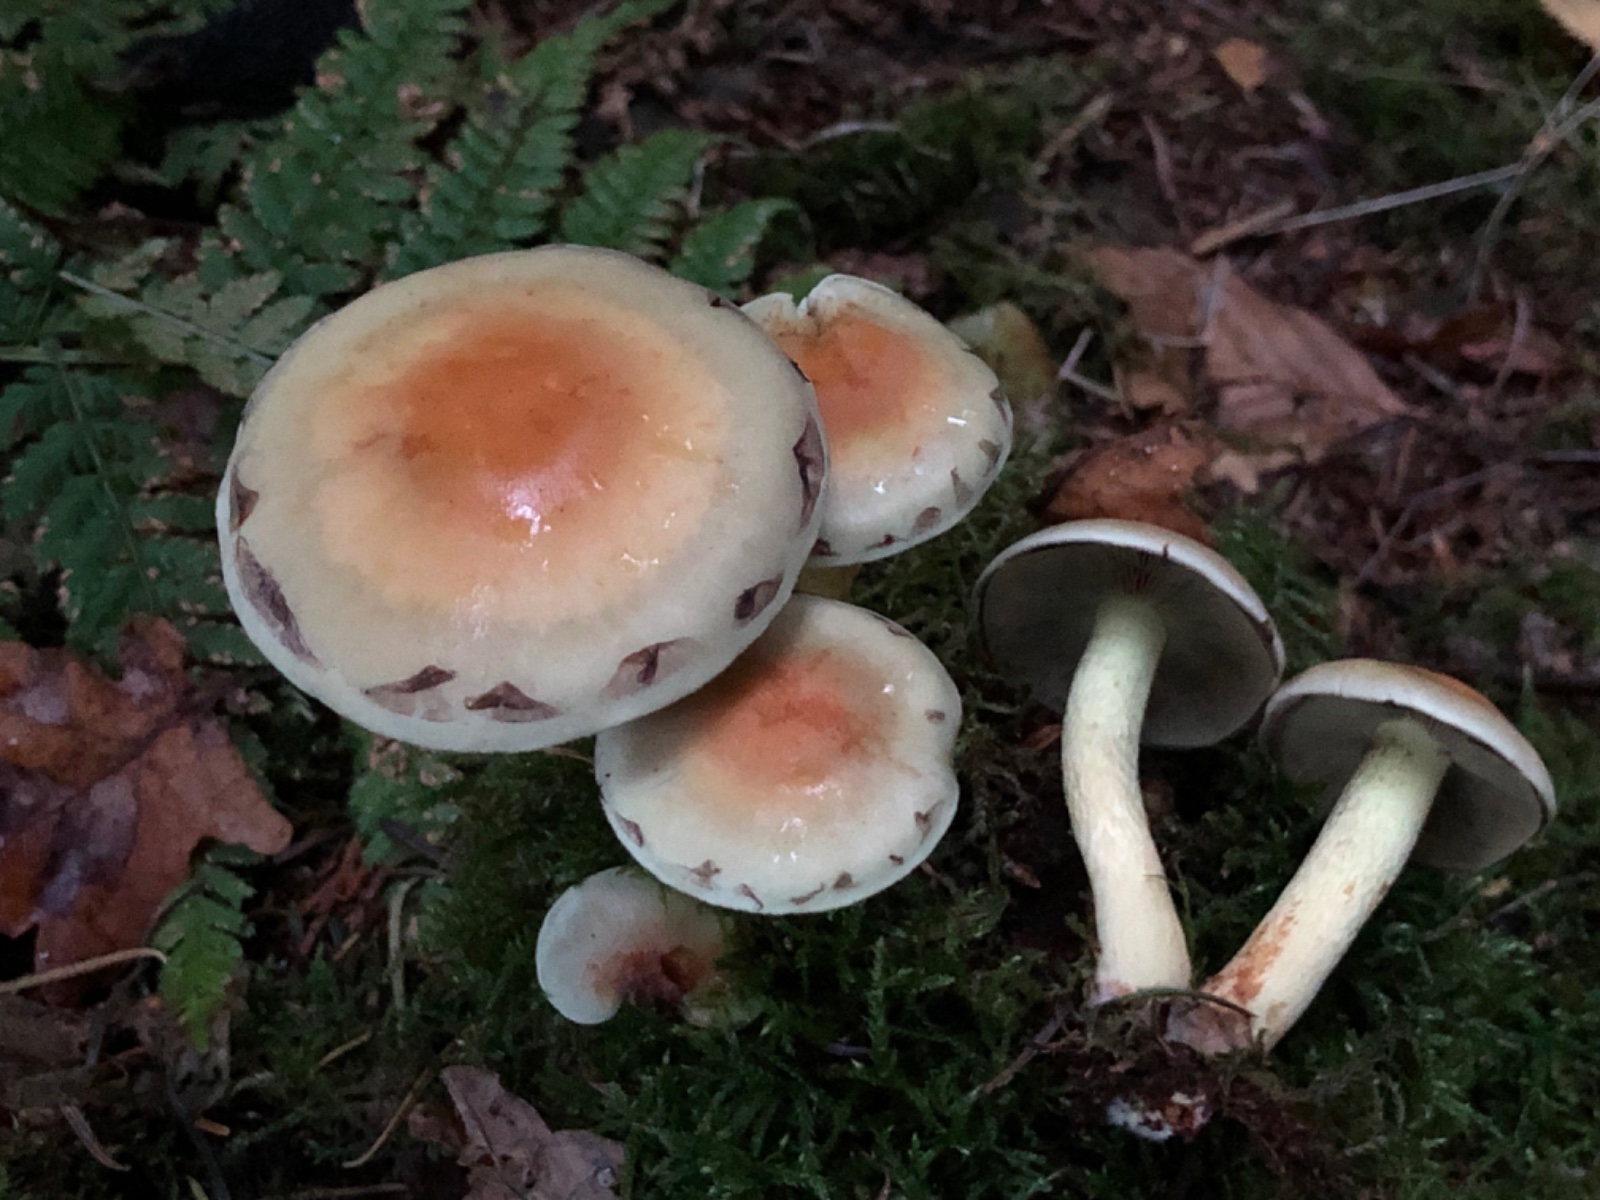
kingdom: Fungi
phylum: Basidiomycota
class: Agaricomycetes
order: Agaricales
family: Strophariaceae
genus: Hypholoma
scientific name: Hypholoma fasciculare
